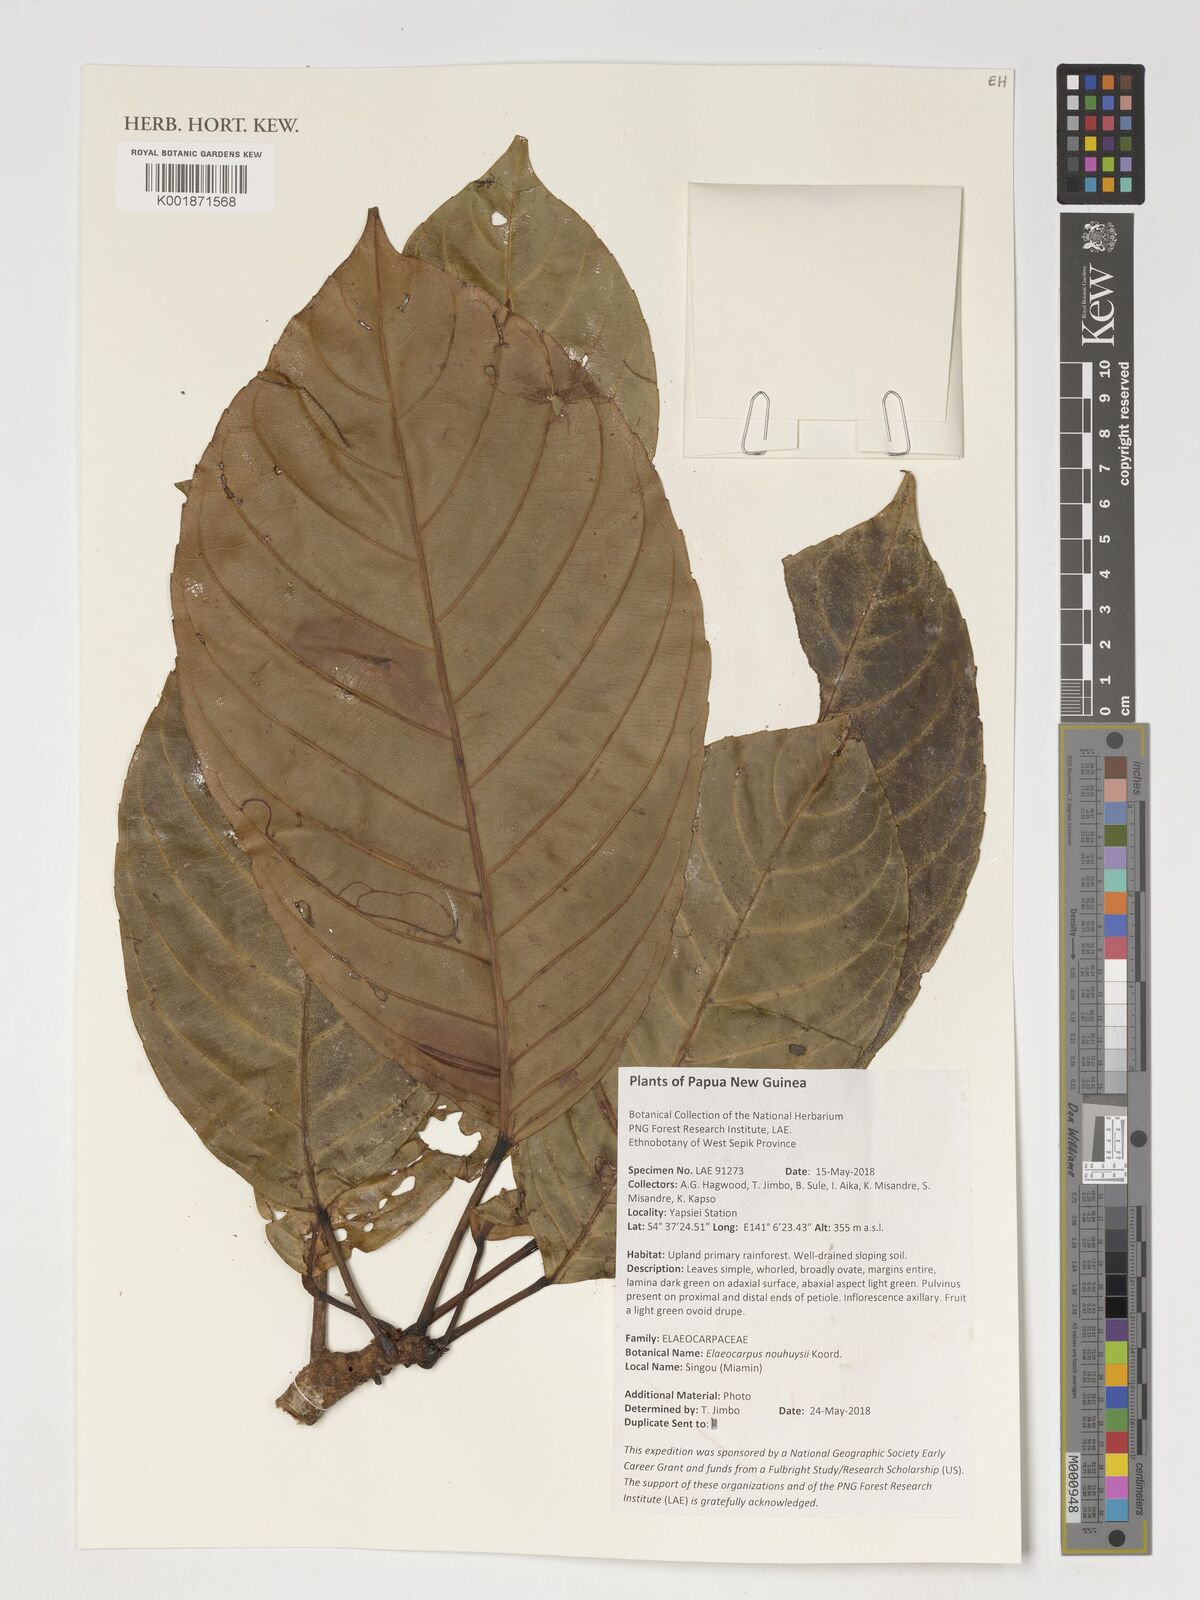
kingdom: Plantae
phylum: Tracheophyta
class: Magnoliopsida
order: Oxalidales
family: Elaeocarpaceae
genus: Elaeocarpus
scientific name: Elaeocarpus nouhuysii
